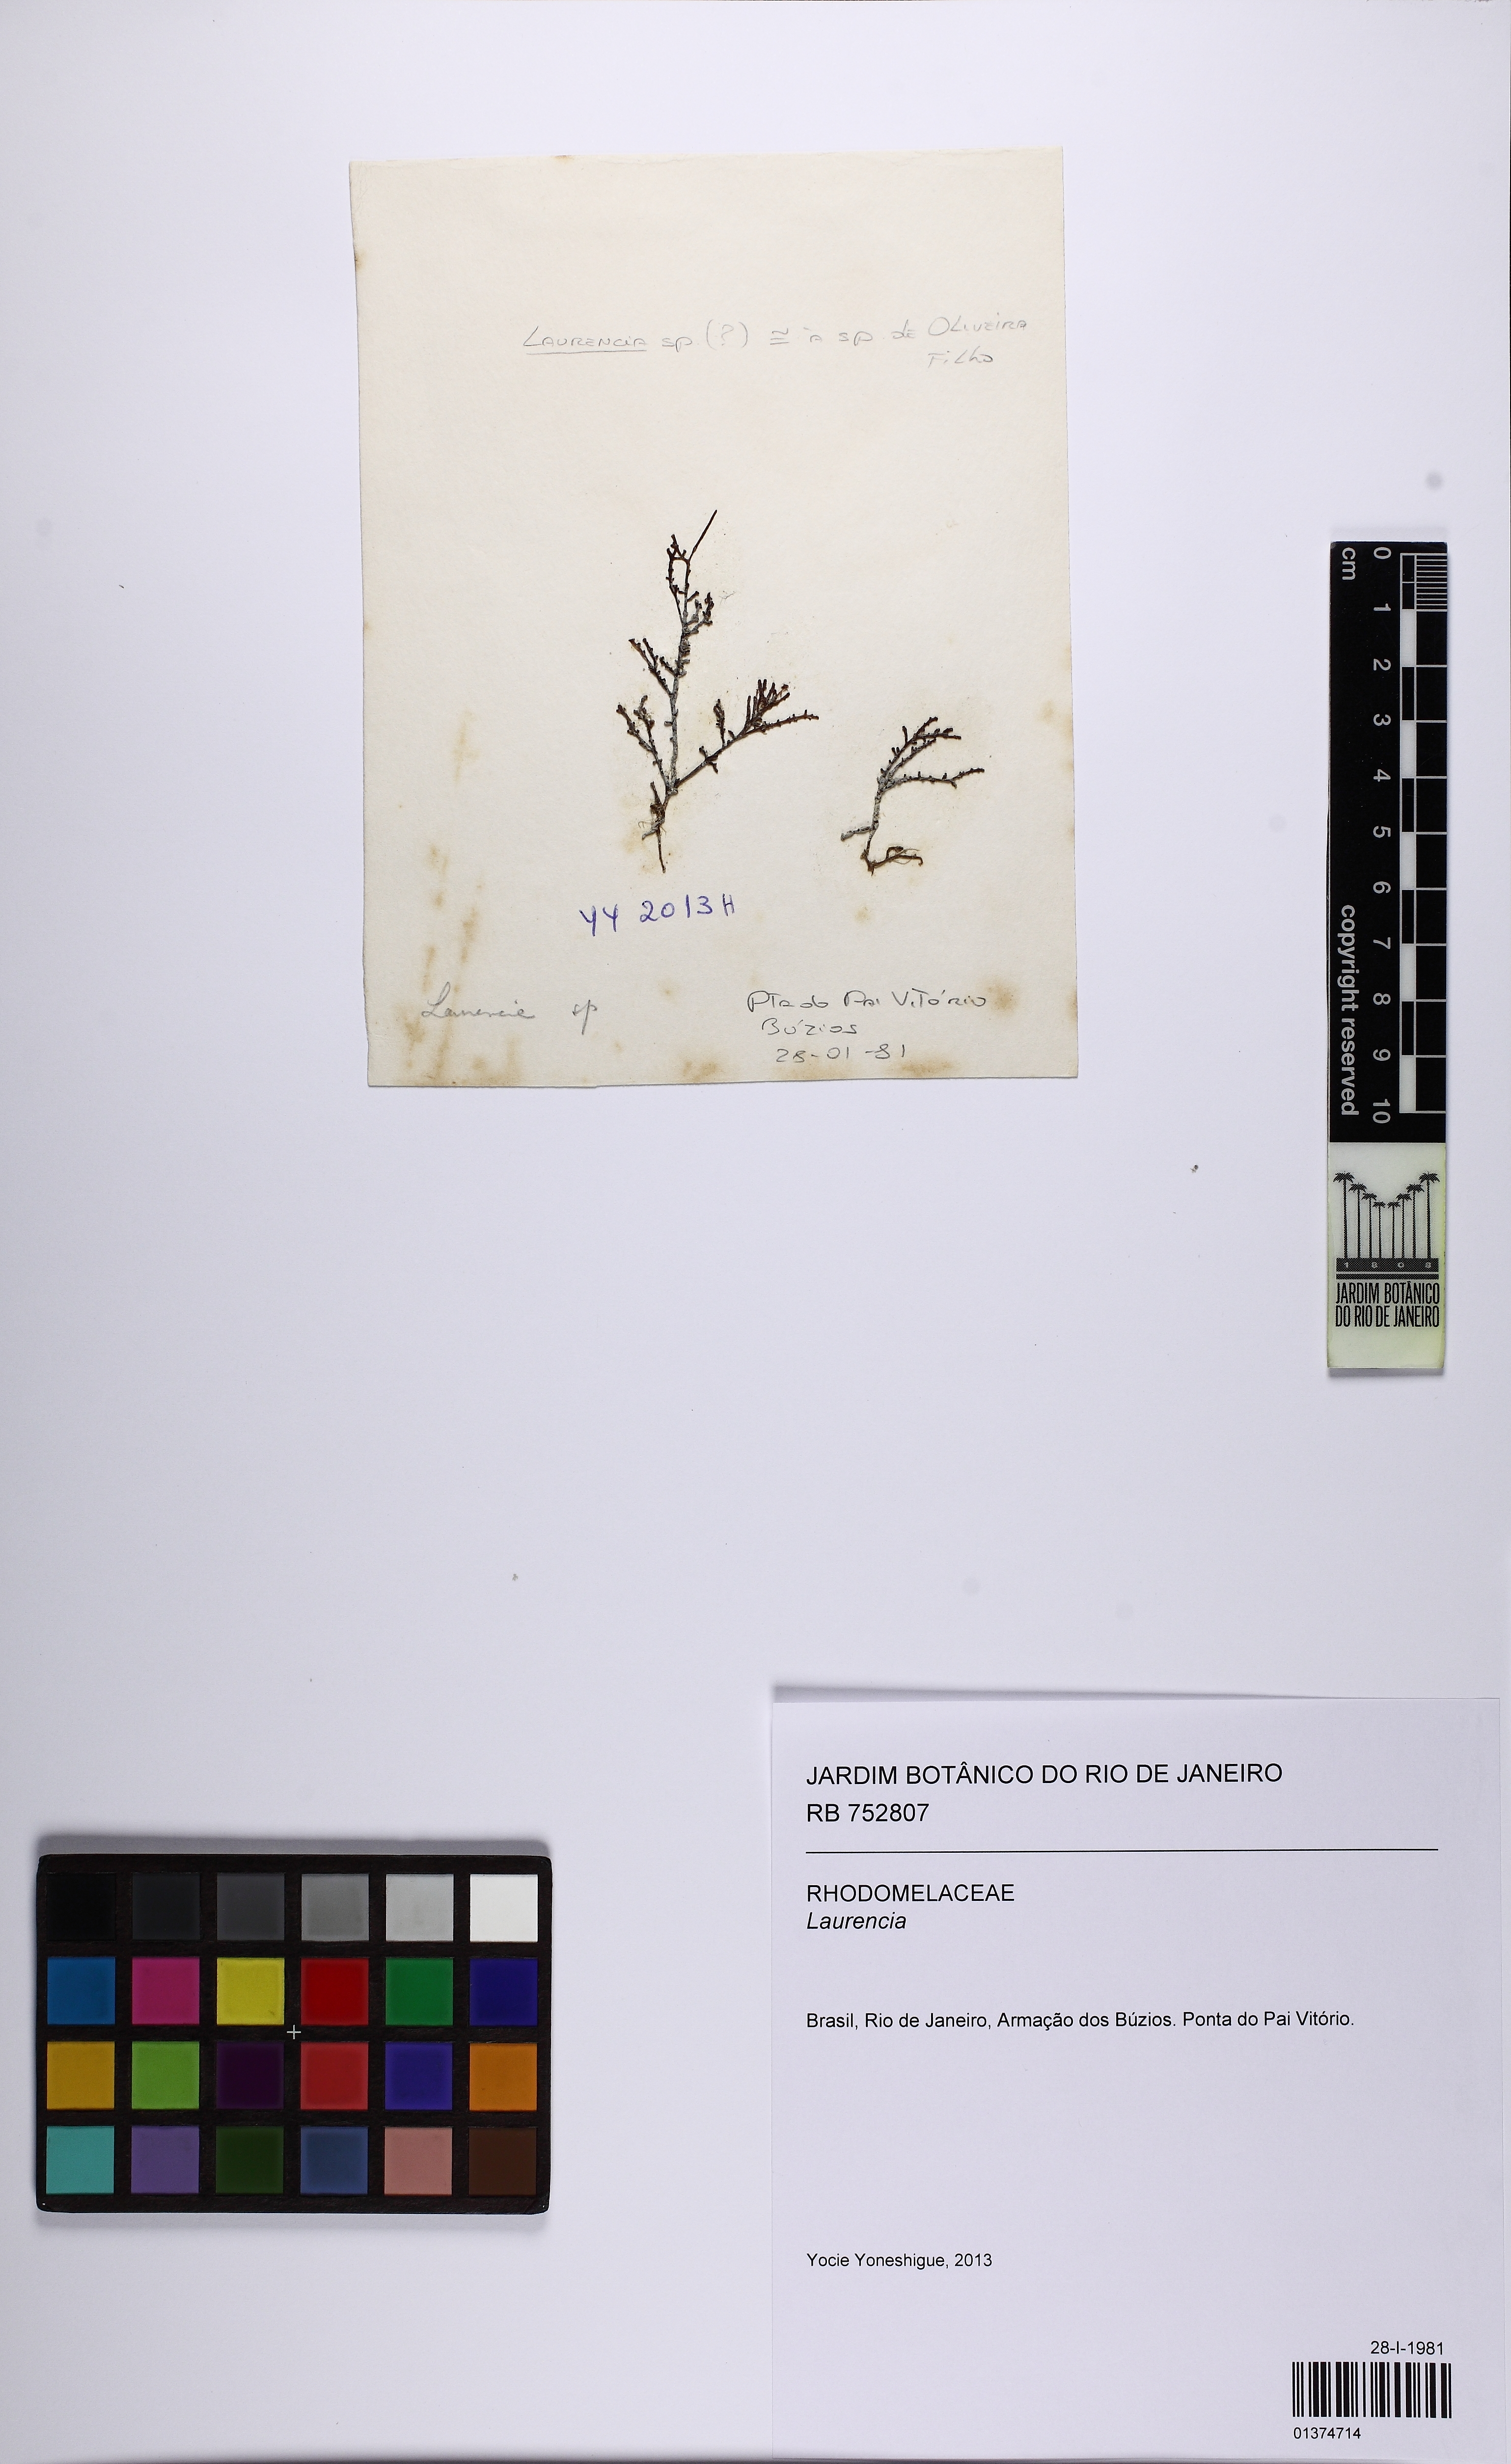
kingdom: Plantae
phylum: Rhodophyta
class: Florideophyceae
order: Ceramiales
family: Rhodomelaceae
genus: Laurencia
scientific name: Laurencia
